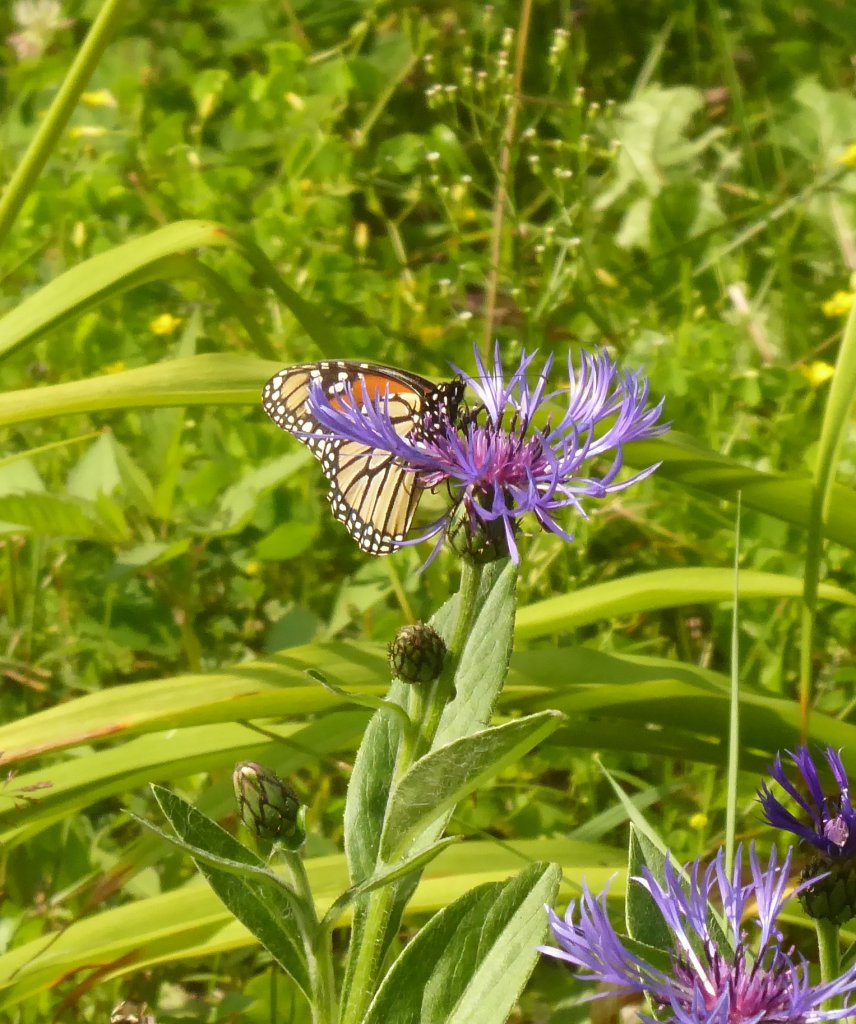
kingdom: Animalia
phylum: Arthropoda
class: Insecta
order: Lepidoptera
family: Nymphalidae
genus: Danaus
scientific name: Danaus plexippus
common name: Monarch
